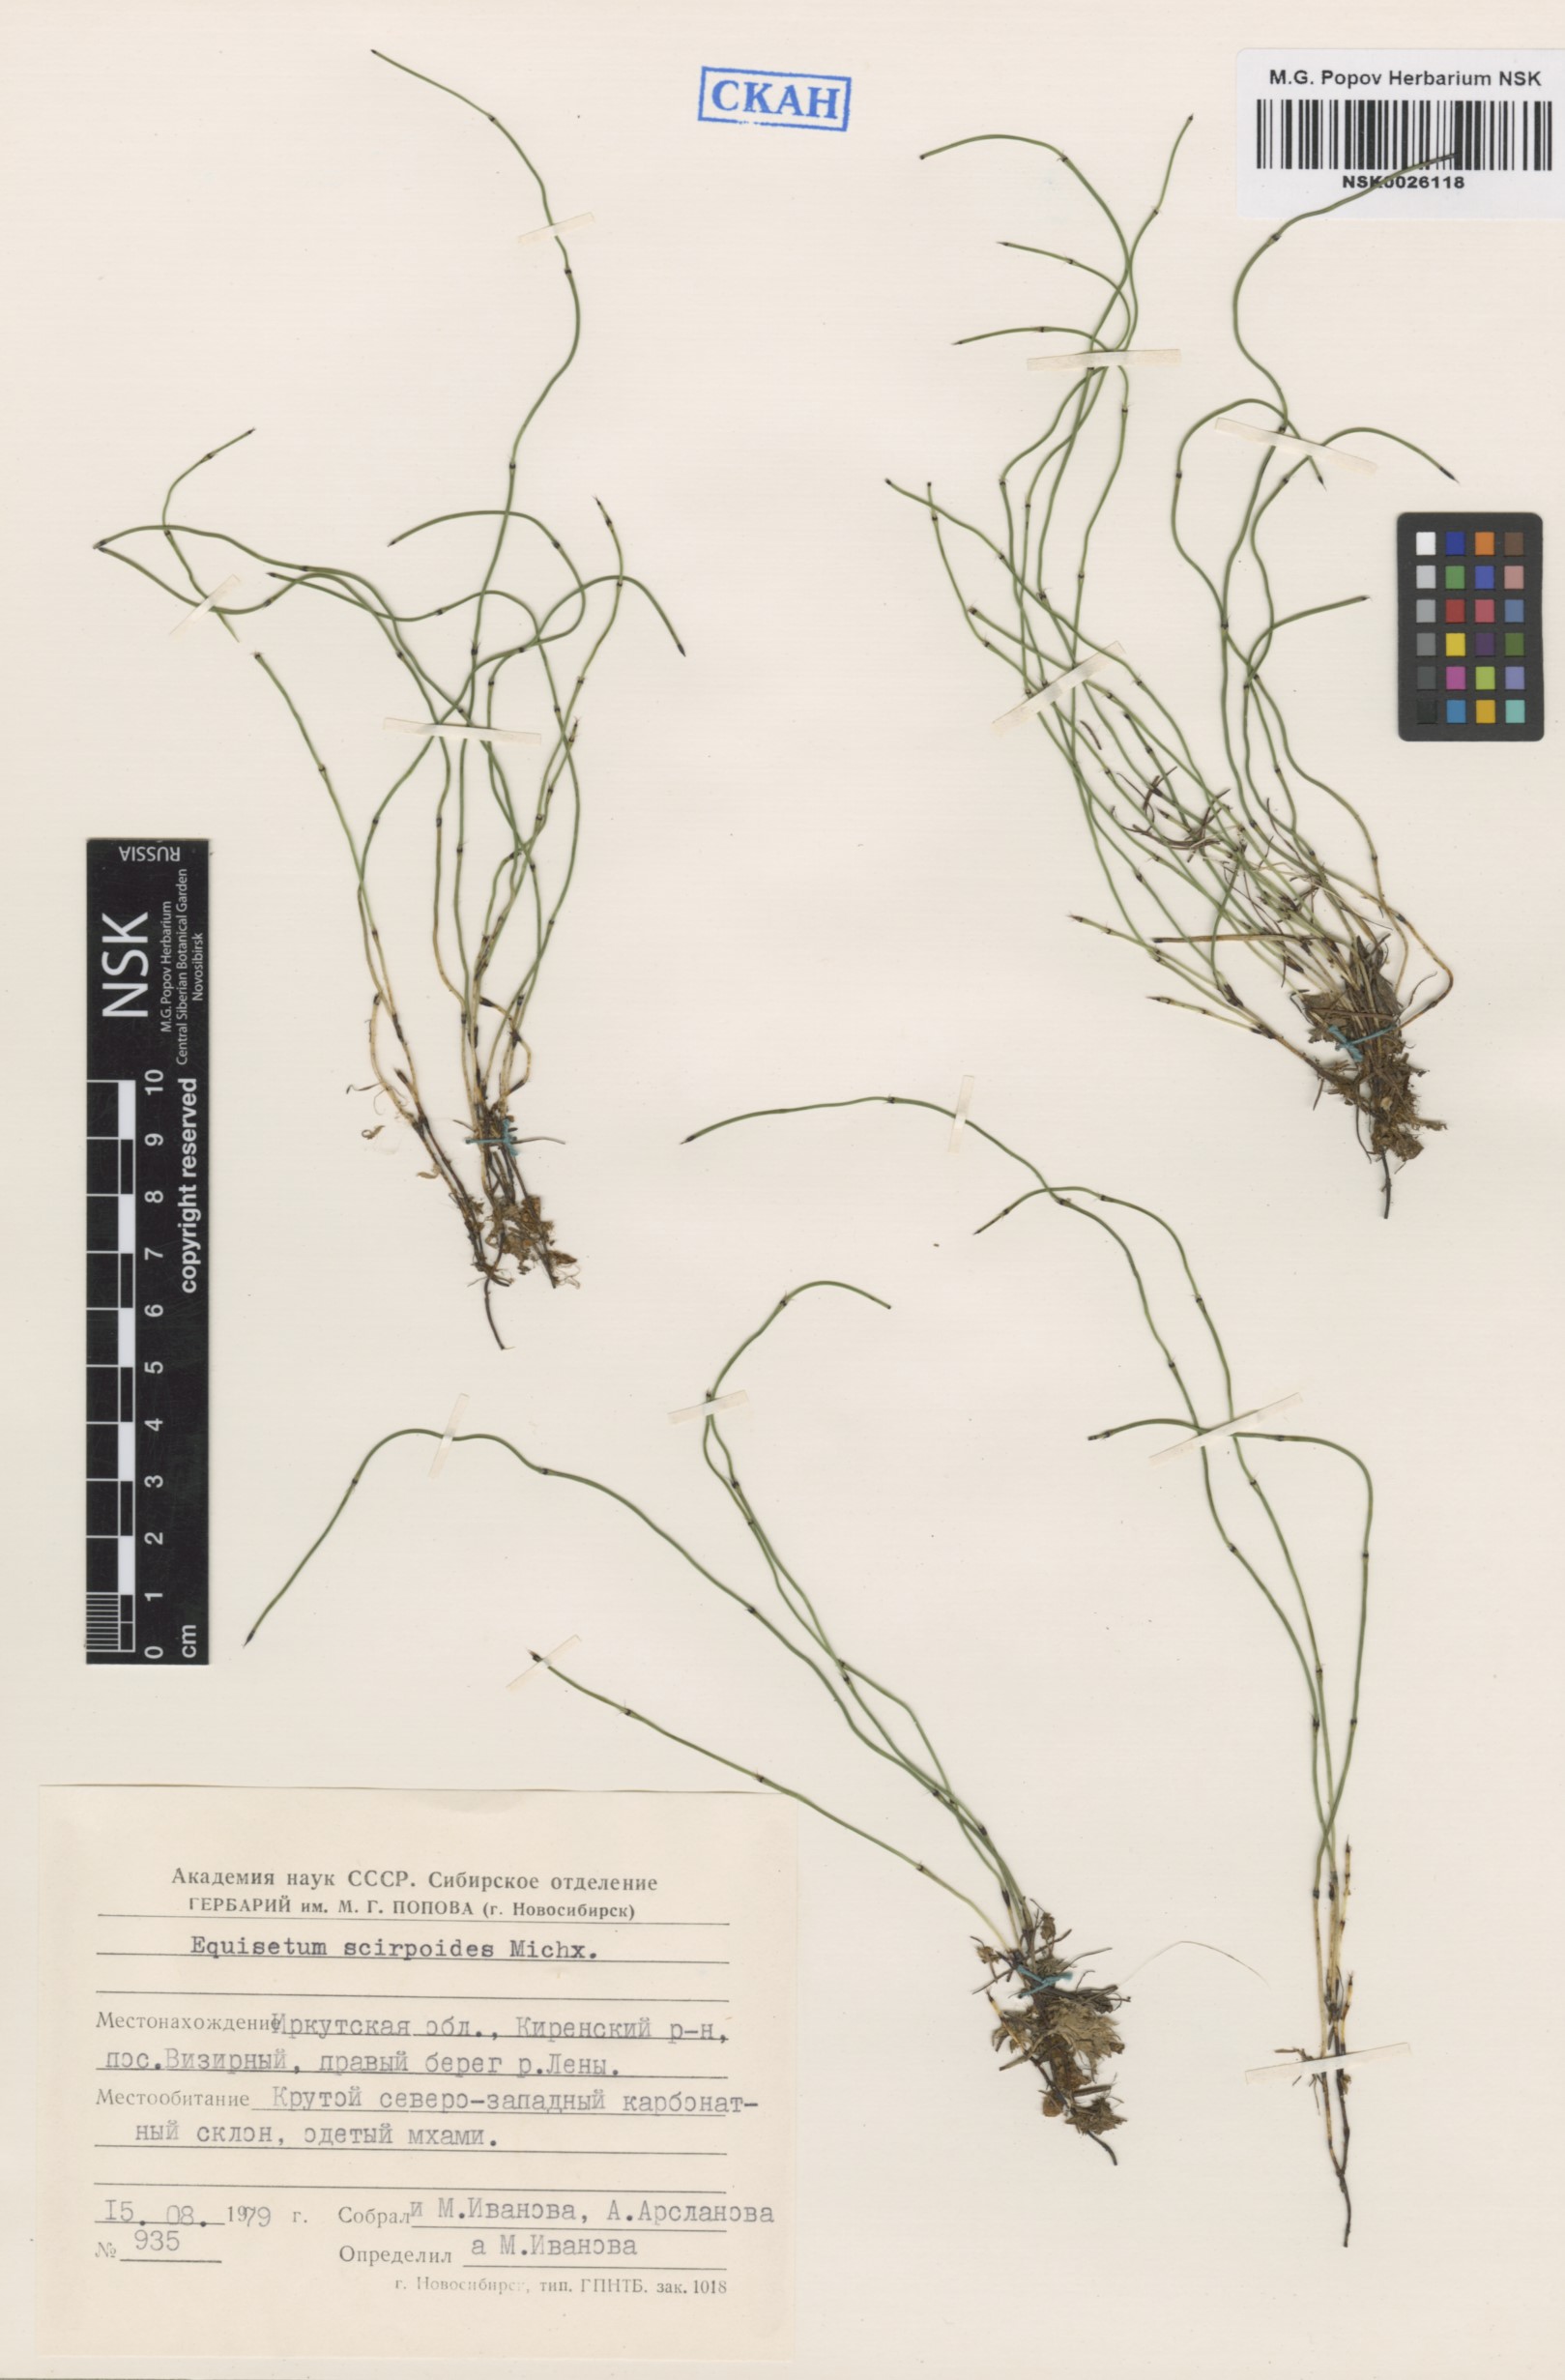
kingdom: Plantae
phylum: Tracheophyta
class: Polypodiopsida
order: Equisetales
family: Equisetaceae
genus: Equisetum
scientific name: Equisetum scirpoides
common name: Delicate horsetail
